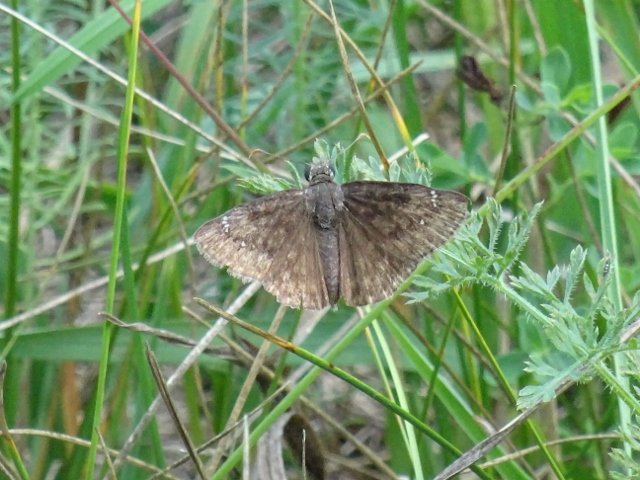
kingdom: Animalia
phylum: Arthropoda
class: Insecta
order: Lepidoptera
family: Hesperiidae
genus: Gesta
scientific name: Gesta
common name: Columbine Duskywing
